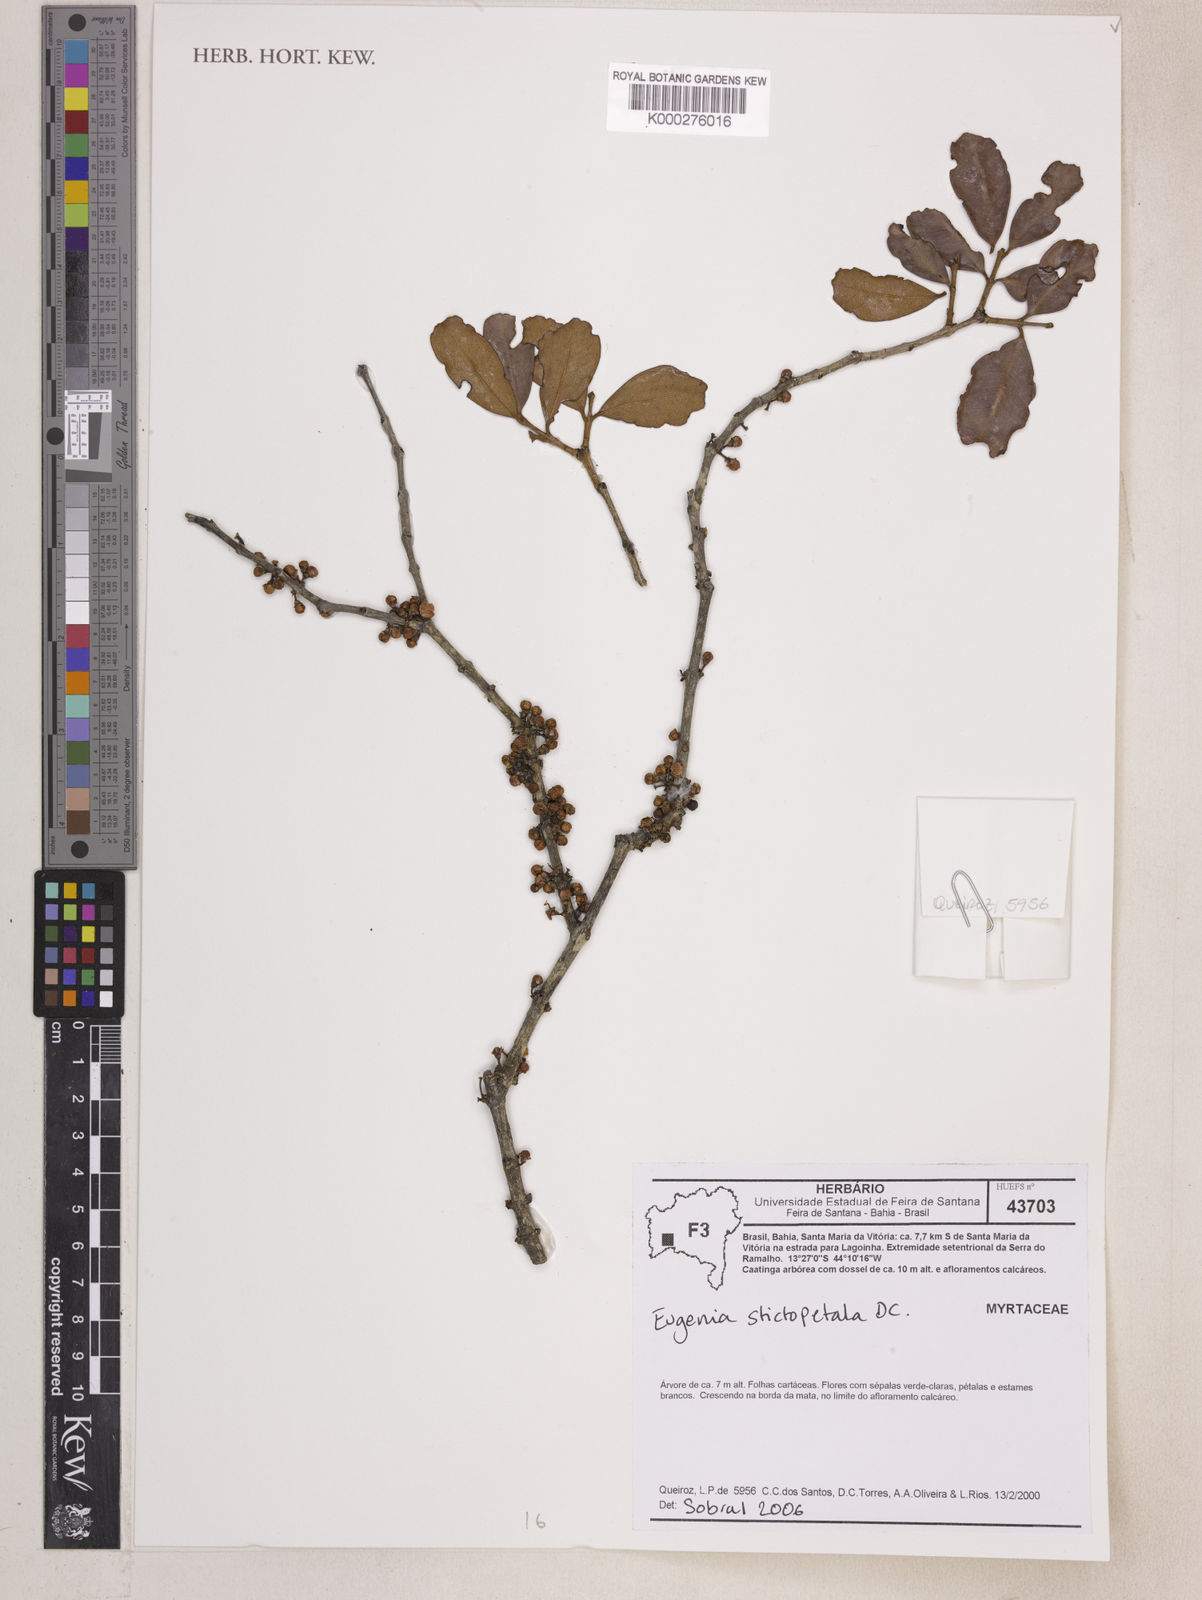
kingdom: Plantae
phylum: Tracheophyta
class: Magnoliopsida
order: Myrtales
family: Myrtaceae
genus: Eugenia
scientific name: Eugenia stictopetala
